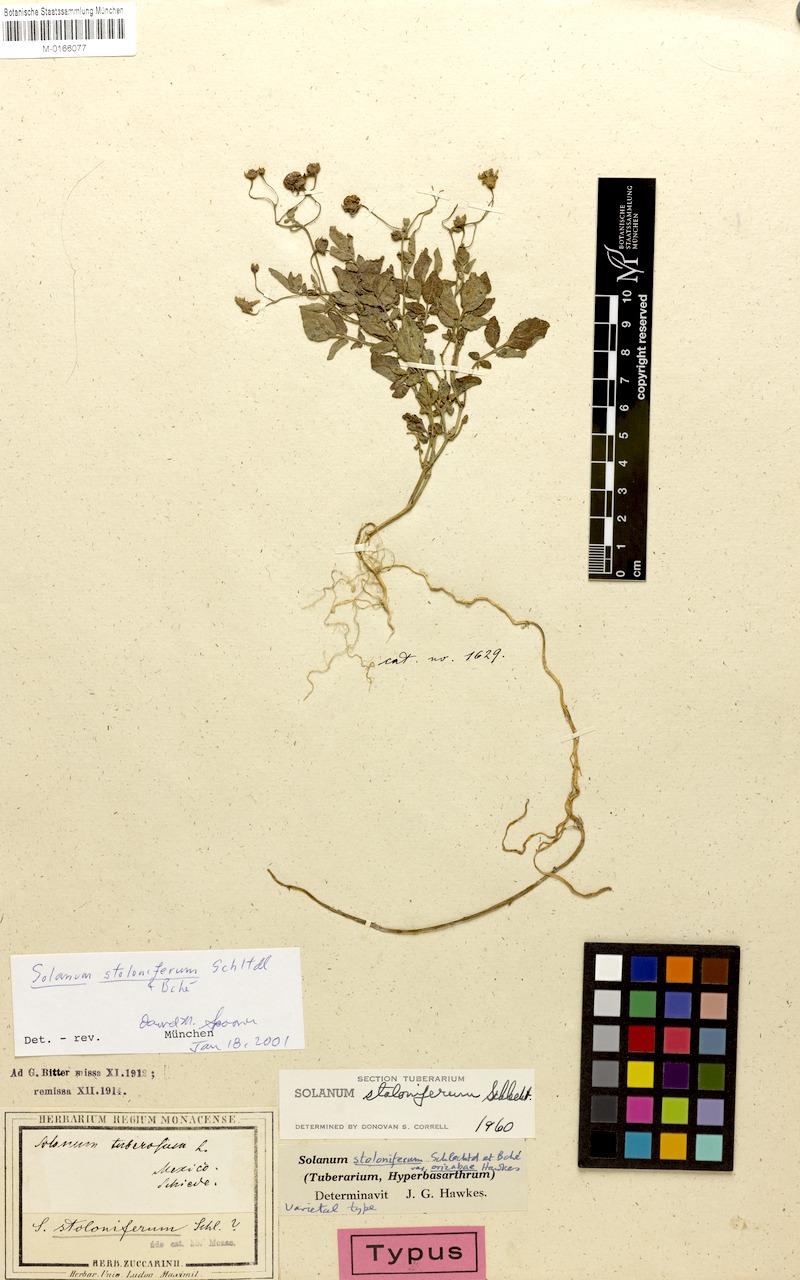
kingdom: Plantae
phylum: Tracheophyta
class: Magnoliopsida
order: Solanales
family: Solanaceae
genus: Solanum
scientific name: Solanum stoloniferum
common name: Fendler's nighshade
